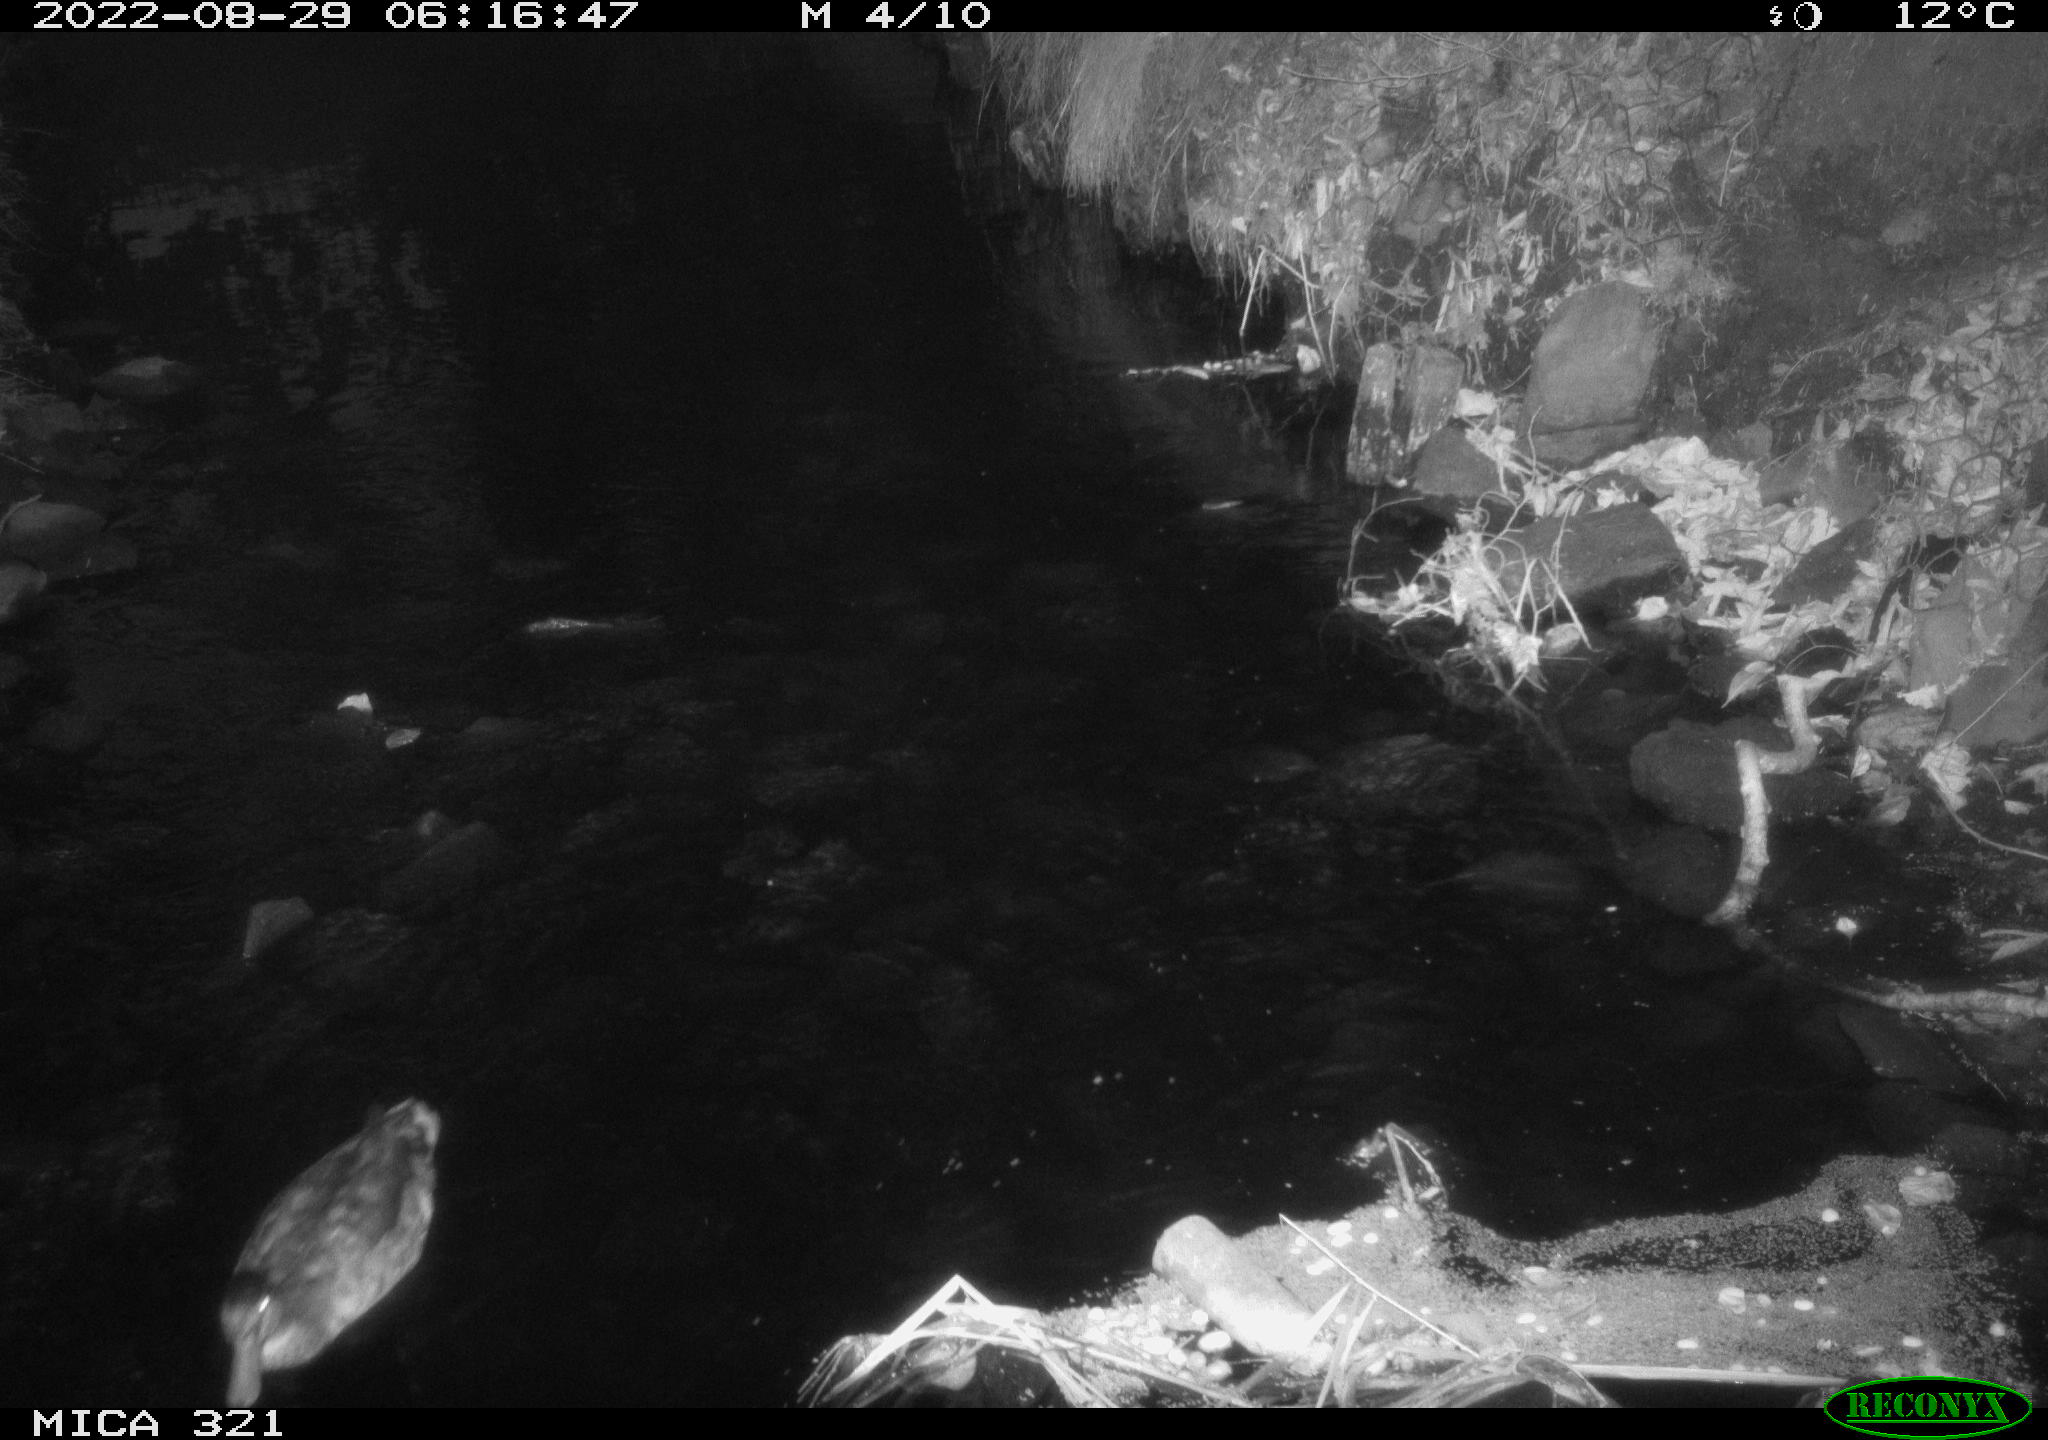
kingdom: Animalia
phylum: Chordata
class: Aves
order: Anseriformes
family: Anatidae
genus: Anas
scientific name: Anas platyrhynchos
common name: Mallard
